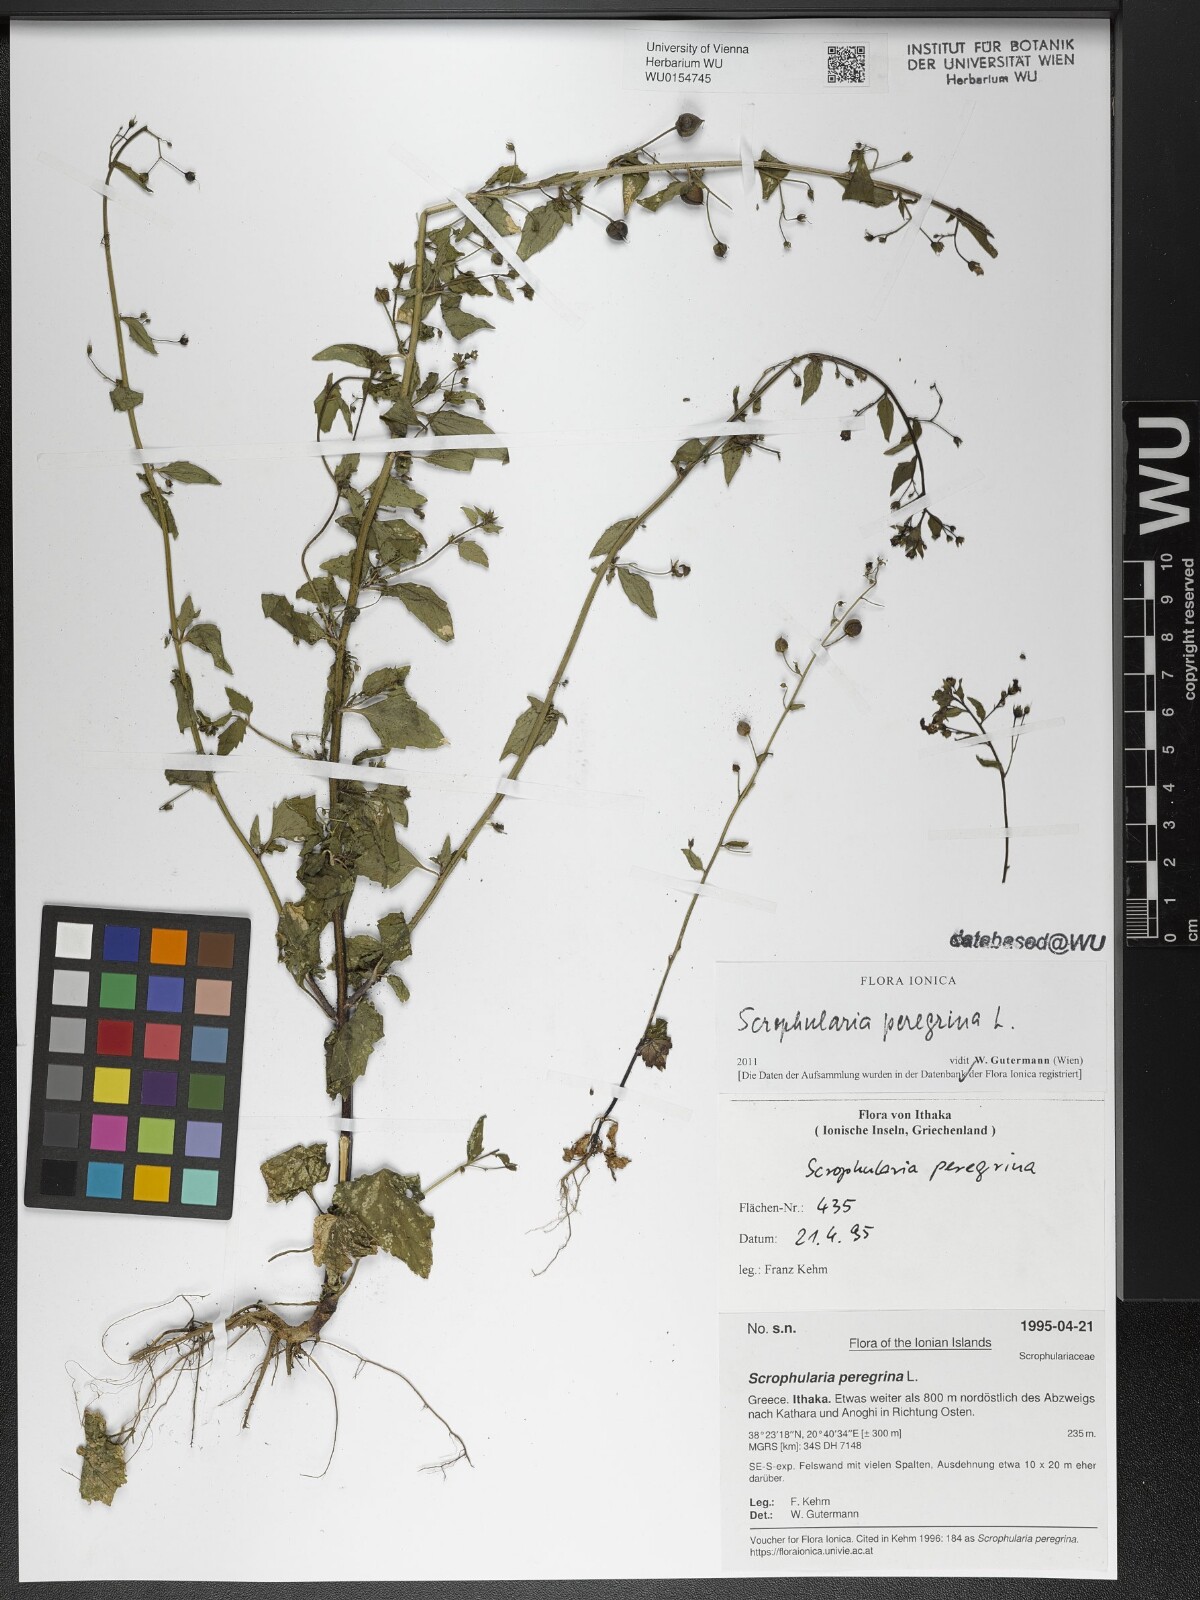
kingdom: Plantae
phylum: Tracheophyta
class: Magnoliopsida
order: Lamiales
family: Scrophulariaceae
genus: Scrophularia
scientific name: Scrophularia peregrina
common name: Mediterranean figwort
